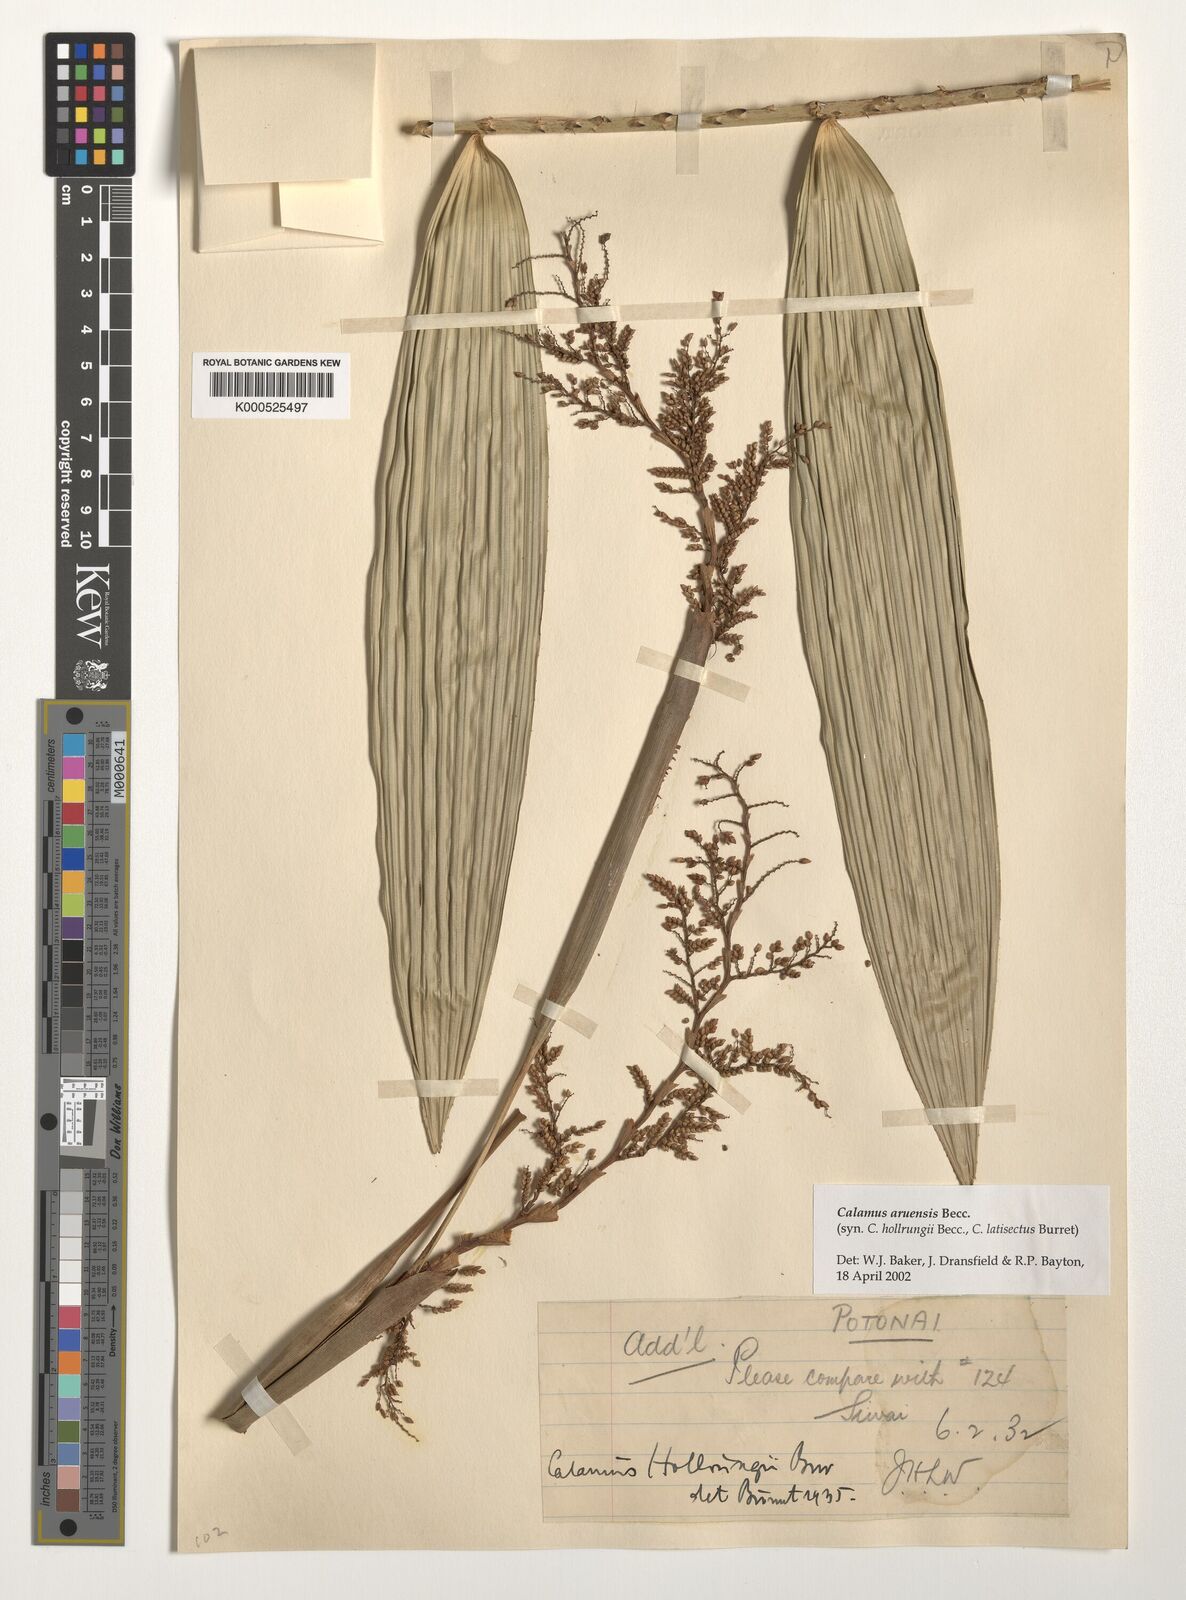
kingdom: Plantae
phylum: Tracheophyta
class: Liliopsida
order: Arecales
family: Arecaceae
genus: Calamus
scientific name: Calamus aruensis
